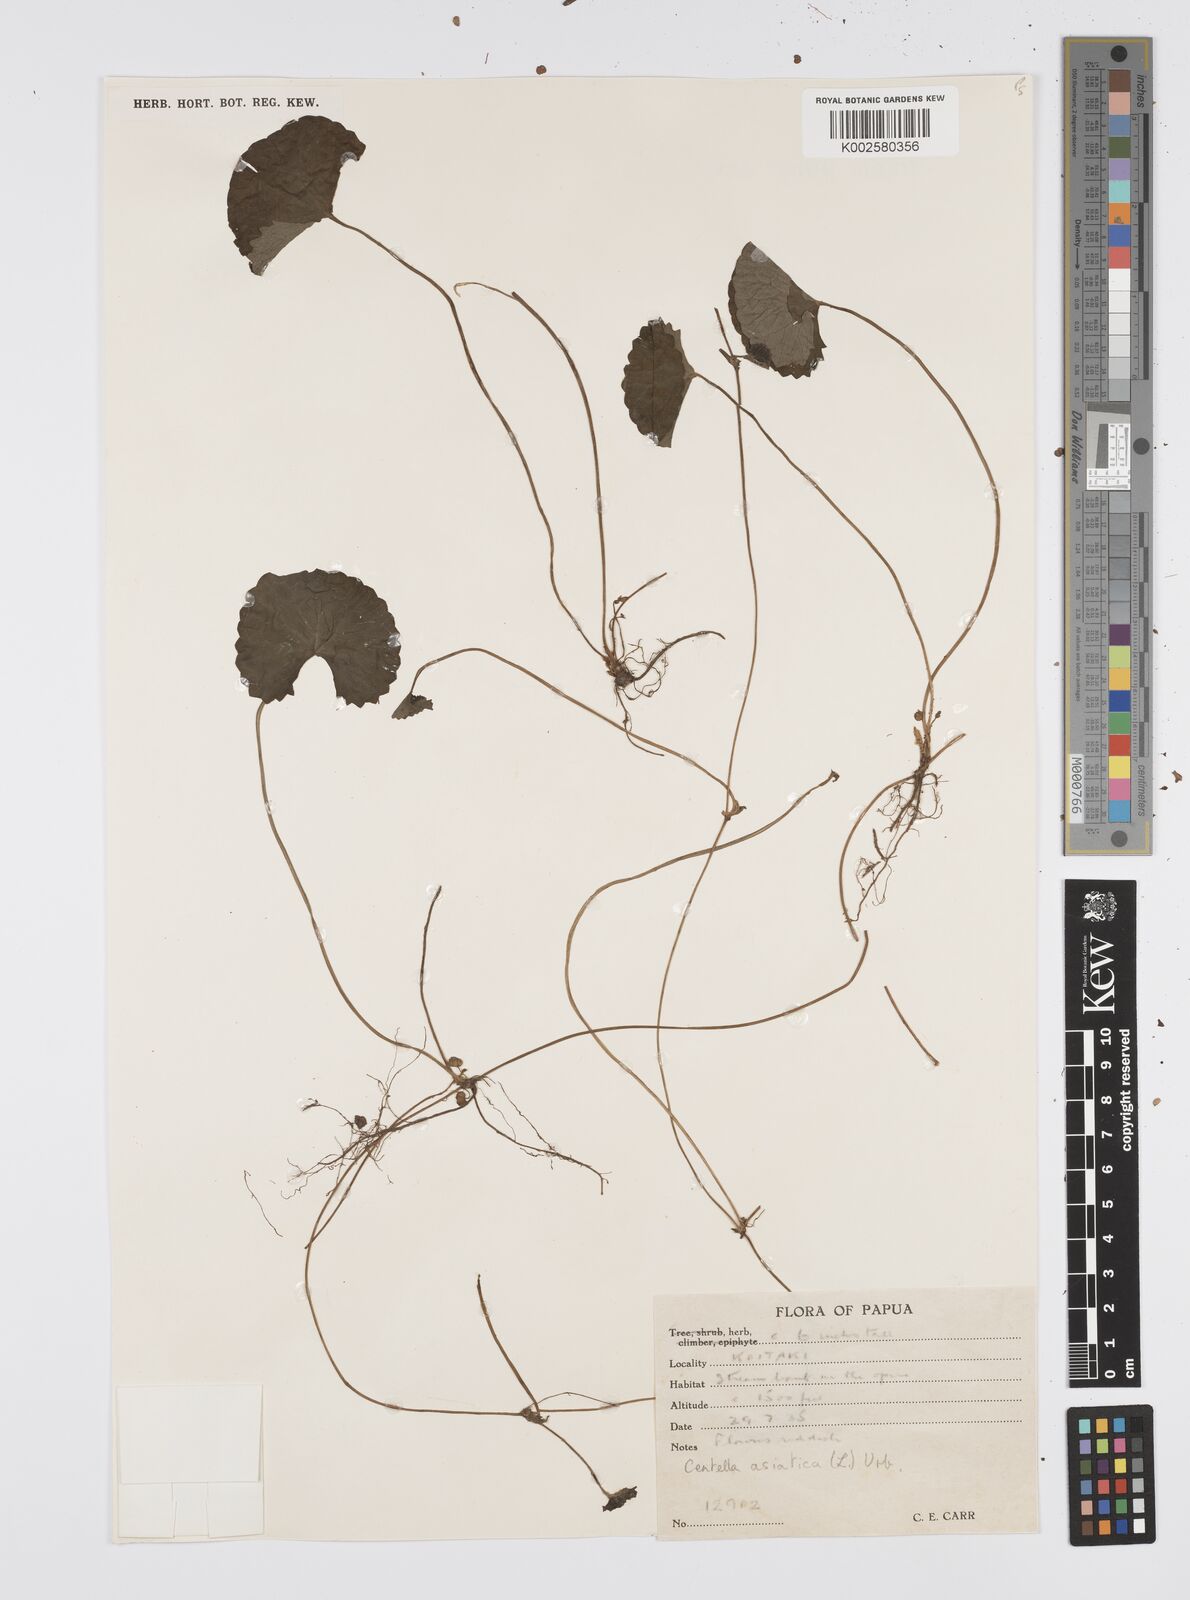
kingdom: Plantae
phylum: Tracheophyta
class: Magnoliopsida
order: Apiales
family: Apiaceae
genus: Centella
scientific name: Centella asiatica
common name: Spadeleaf
